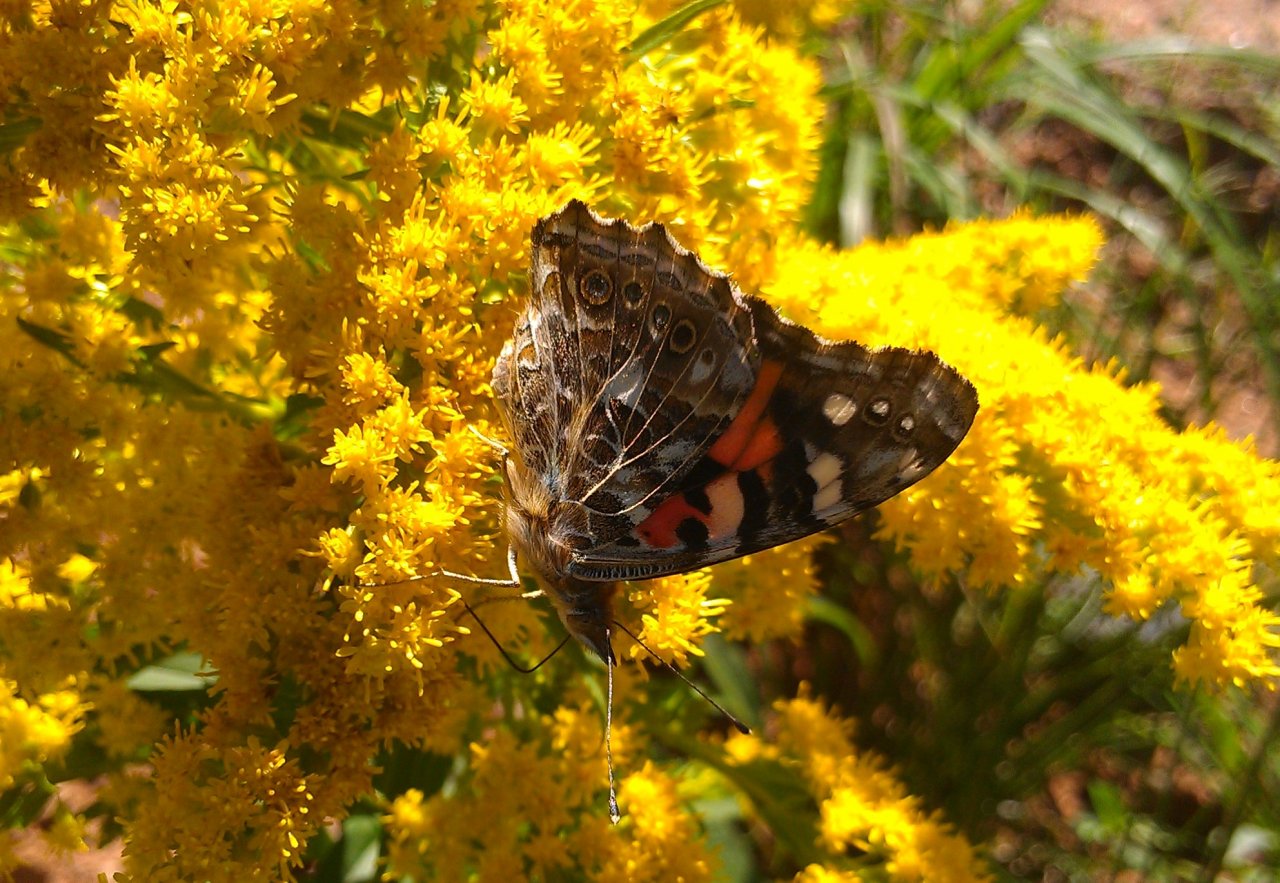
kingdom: Animalia
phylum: Arthropoda
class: Insecta
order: Lepidoptera
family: Nymphalidae
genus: Vanessa
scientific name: Vanessa cardui
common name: Painted Lady
